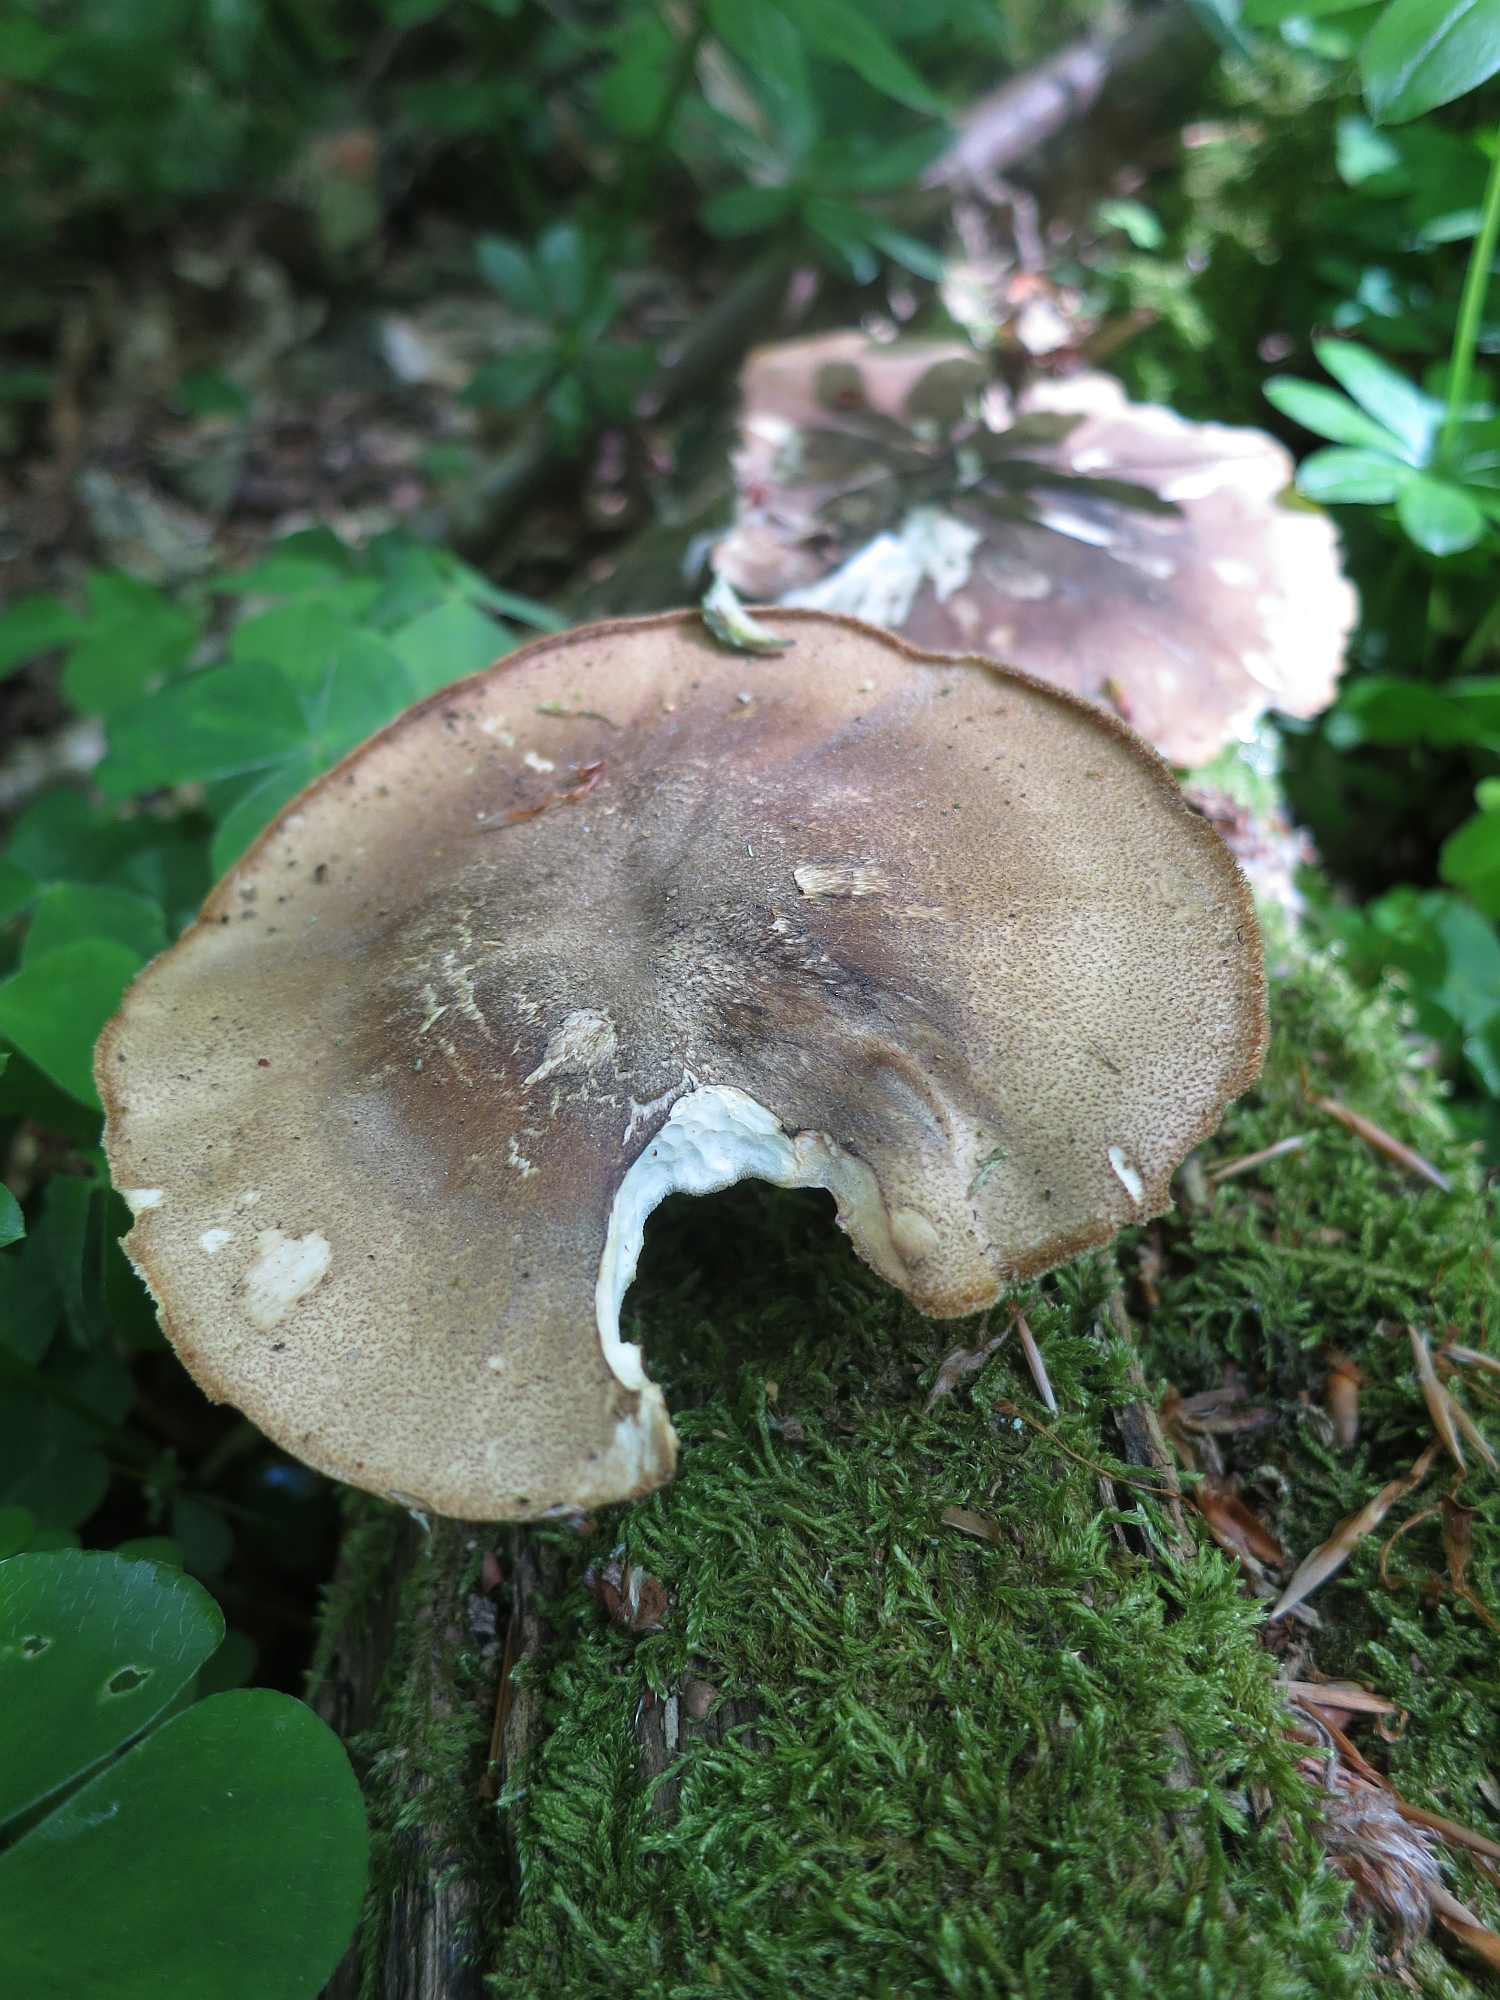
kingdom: Fungi
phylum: Basidiomycota
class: Agaricomycetes
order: Polyporales
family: Polyporaceae
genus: Lentinus
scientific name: Lentinus substrictus
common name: forårs-stilkporesvamp
